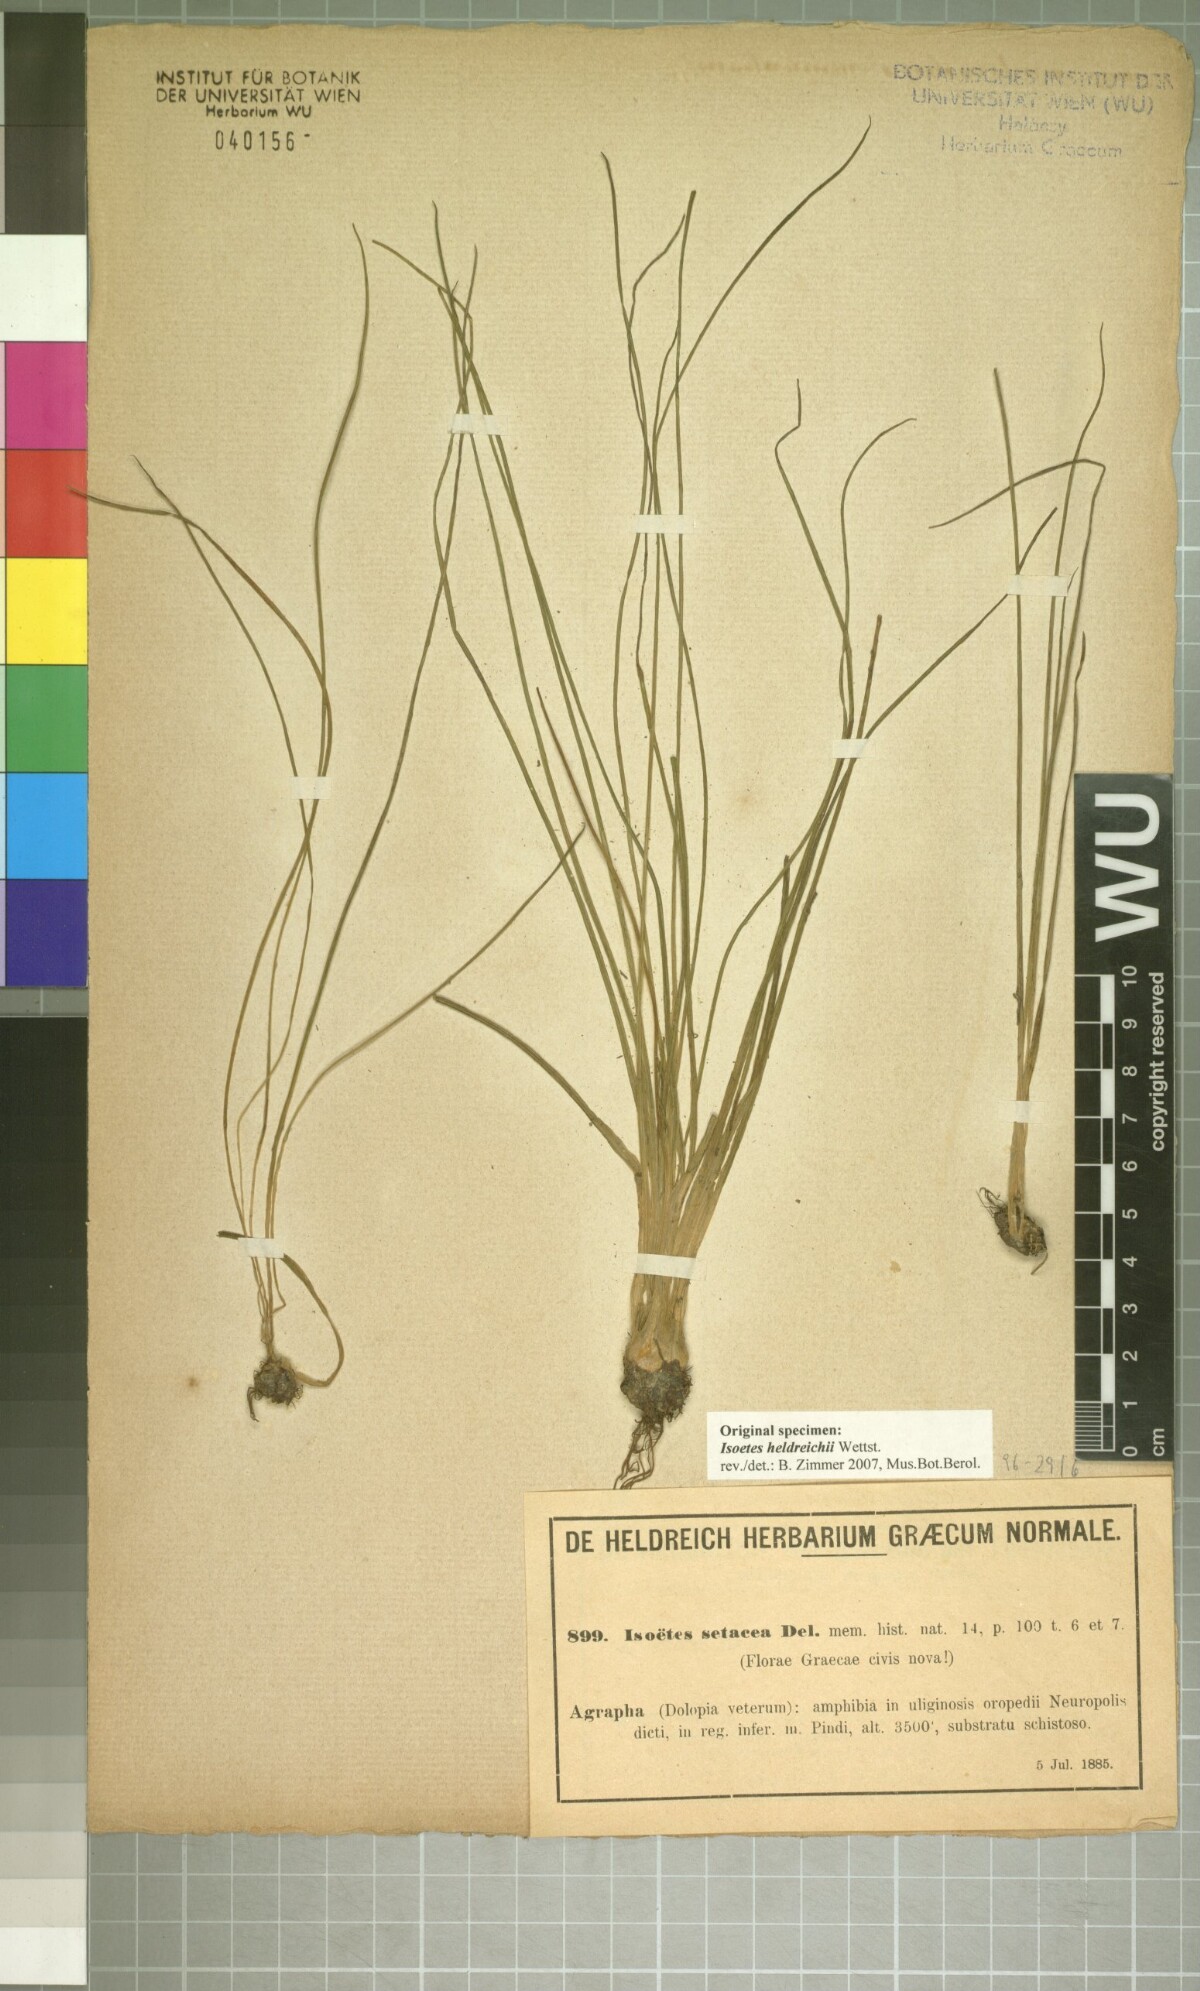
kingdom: Plantae
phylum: Tracheophyta
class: Lycopodiopsida
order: Isoetales
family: Isoetaceae
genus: Isoetes
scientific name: Isoetes heldreichii
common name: Pindus quillwort
